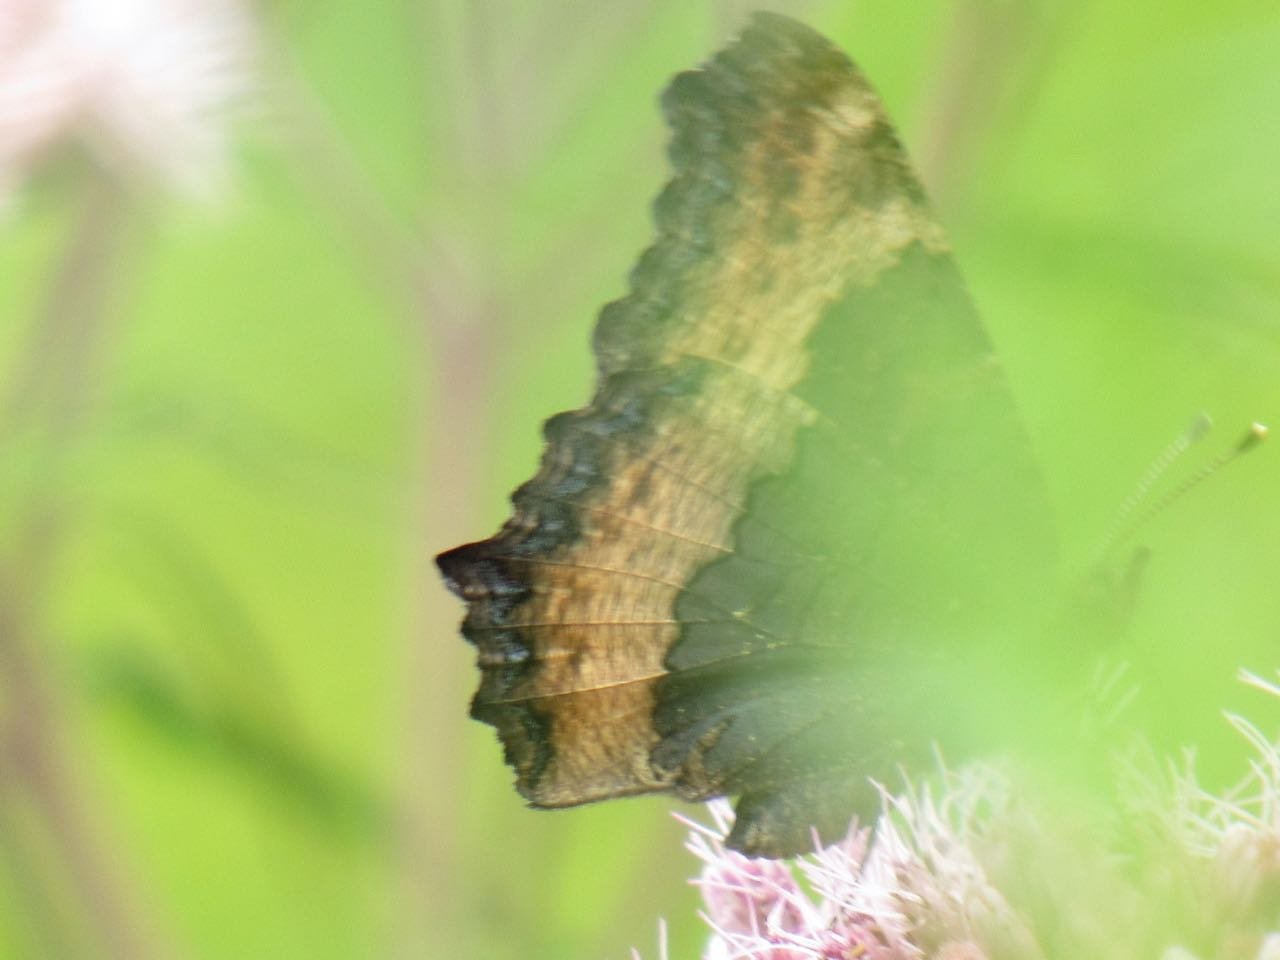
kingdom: Animalia
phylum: Arthropoda
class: Insecta
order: Lepidoptera
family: Nymphalidae
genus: Aglais
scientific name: Aglais milberti
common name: Milbert's Tortoiseshell
